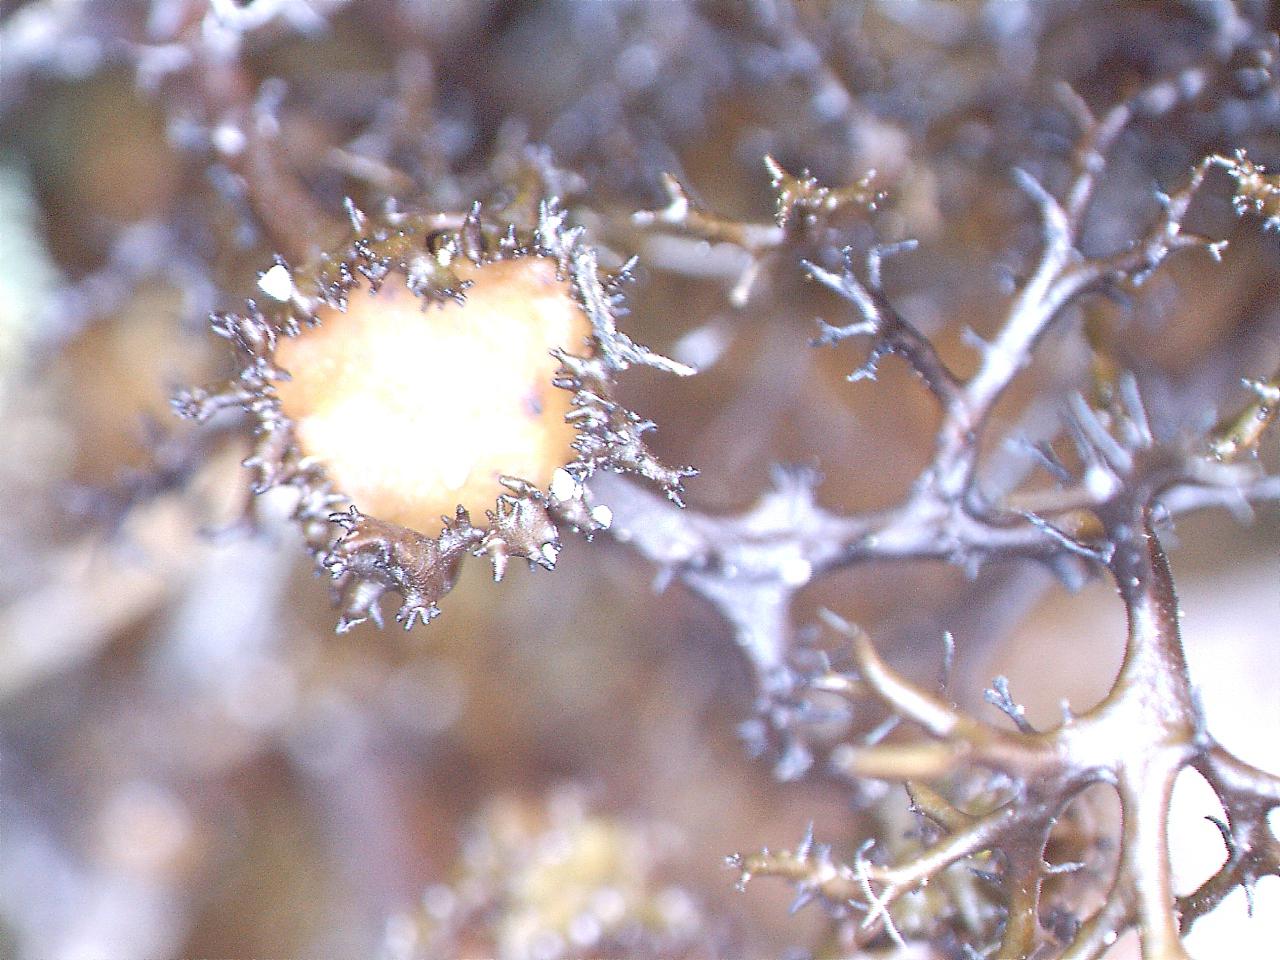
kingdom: Fungi
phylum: Ascomycota
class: Lecanoromycetes
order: Lecanorales
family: Parmeliaceae
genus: Cetraria
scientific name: Cetraria muricata
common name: tue-tjørnelav
